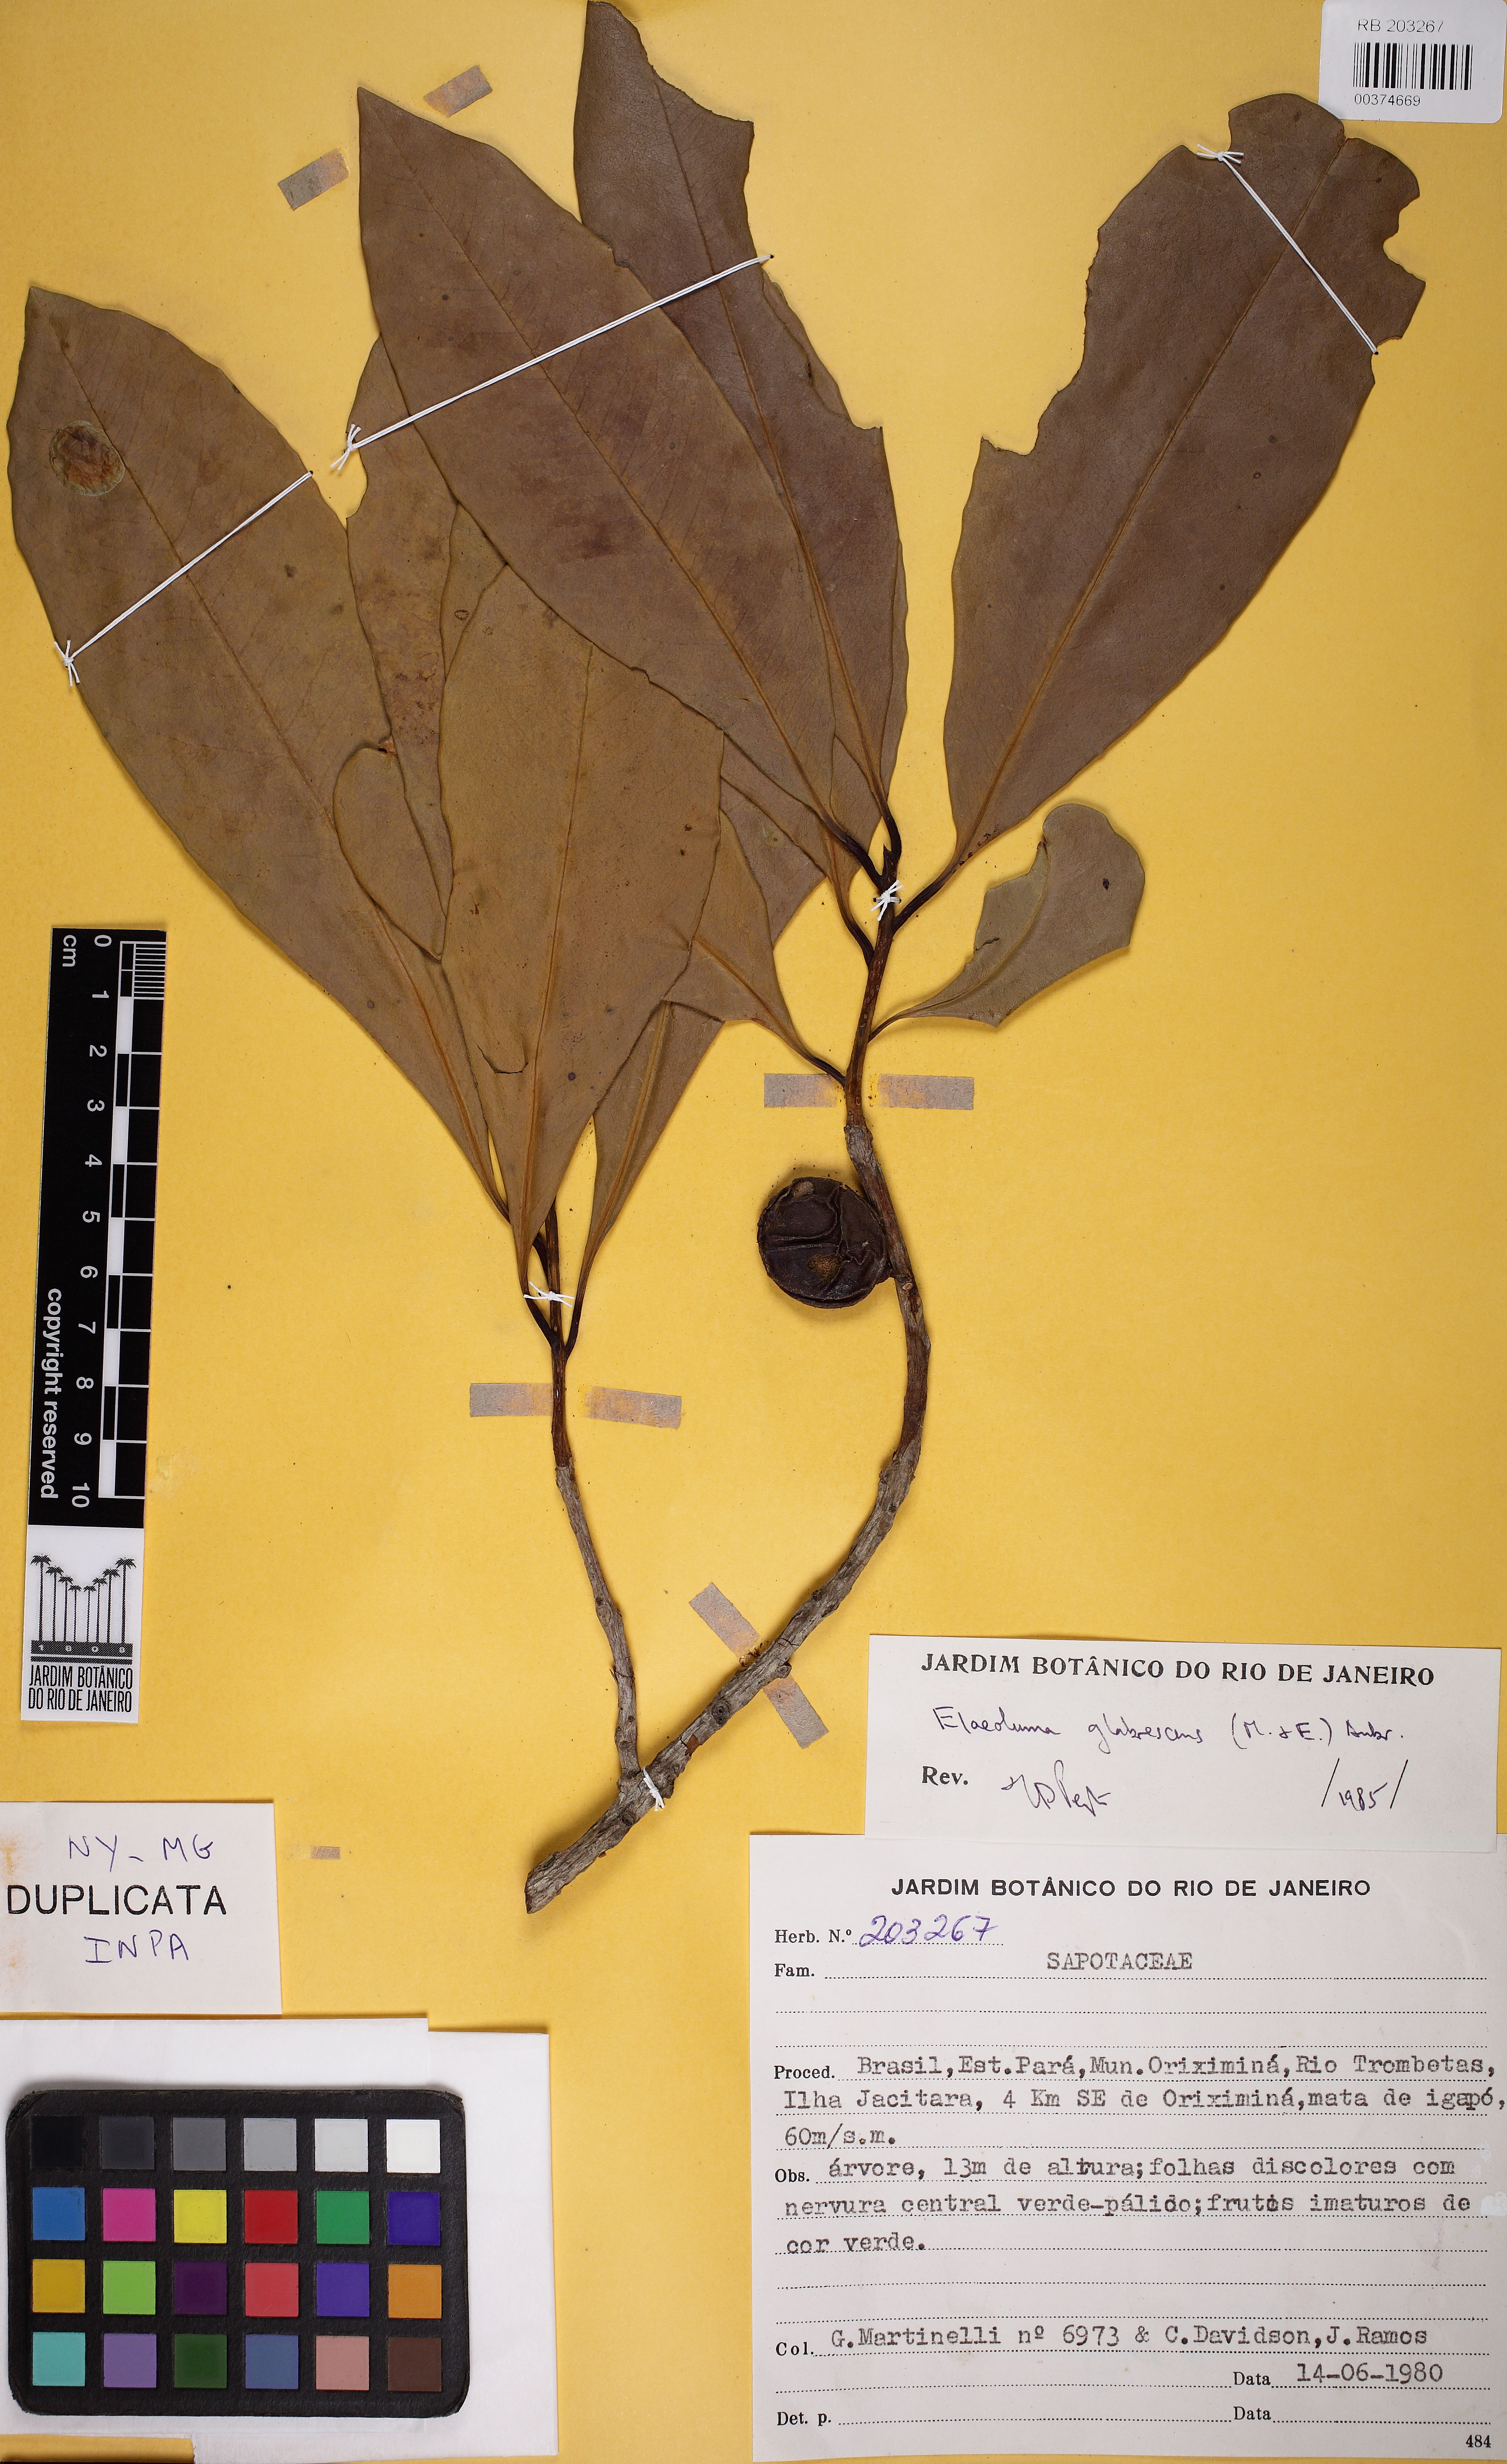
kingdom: Plantae
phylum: Tracheophyta
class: Magnoliopsida
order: Ericales
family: Sapotaceae
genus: Elaeoluma
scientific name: Elaeoluma glabrescens
